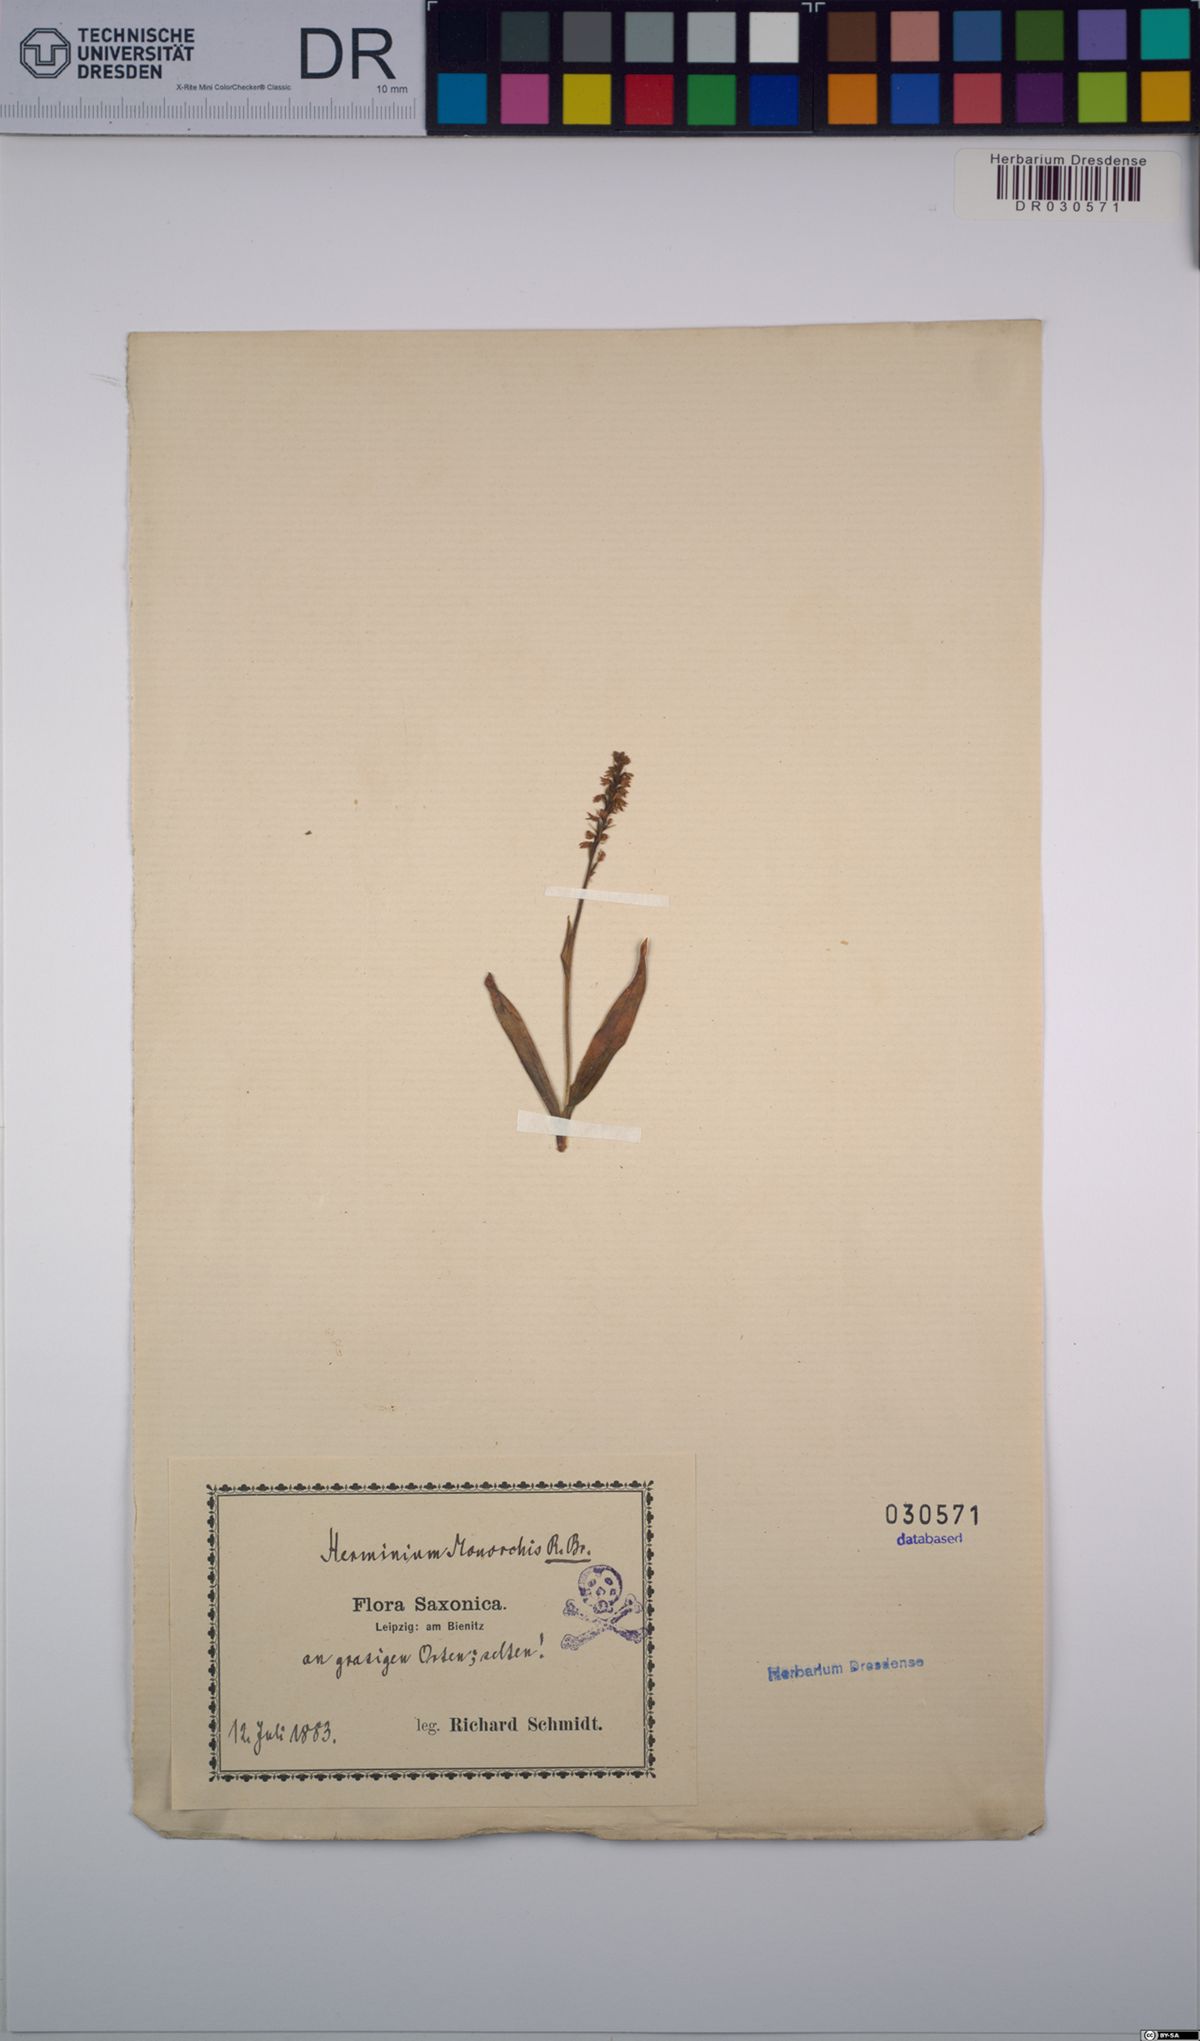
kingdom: Plantae
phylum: Tracheophyta
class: Liliopsida
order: Asparagales
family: Orchidaceae
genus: Herminium
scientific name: Herminium monorchis
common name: Musk orchid
